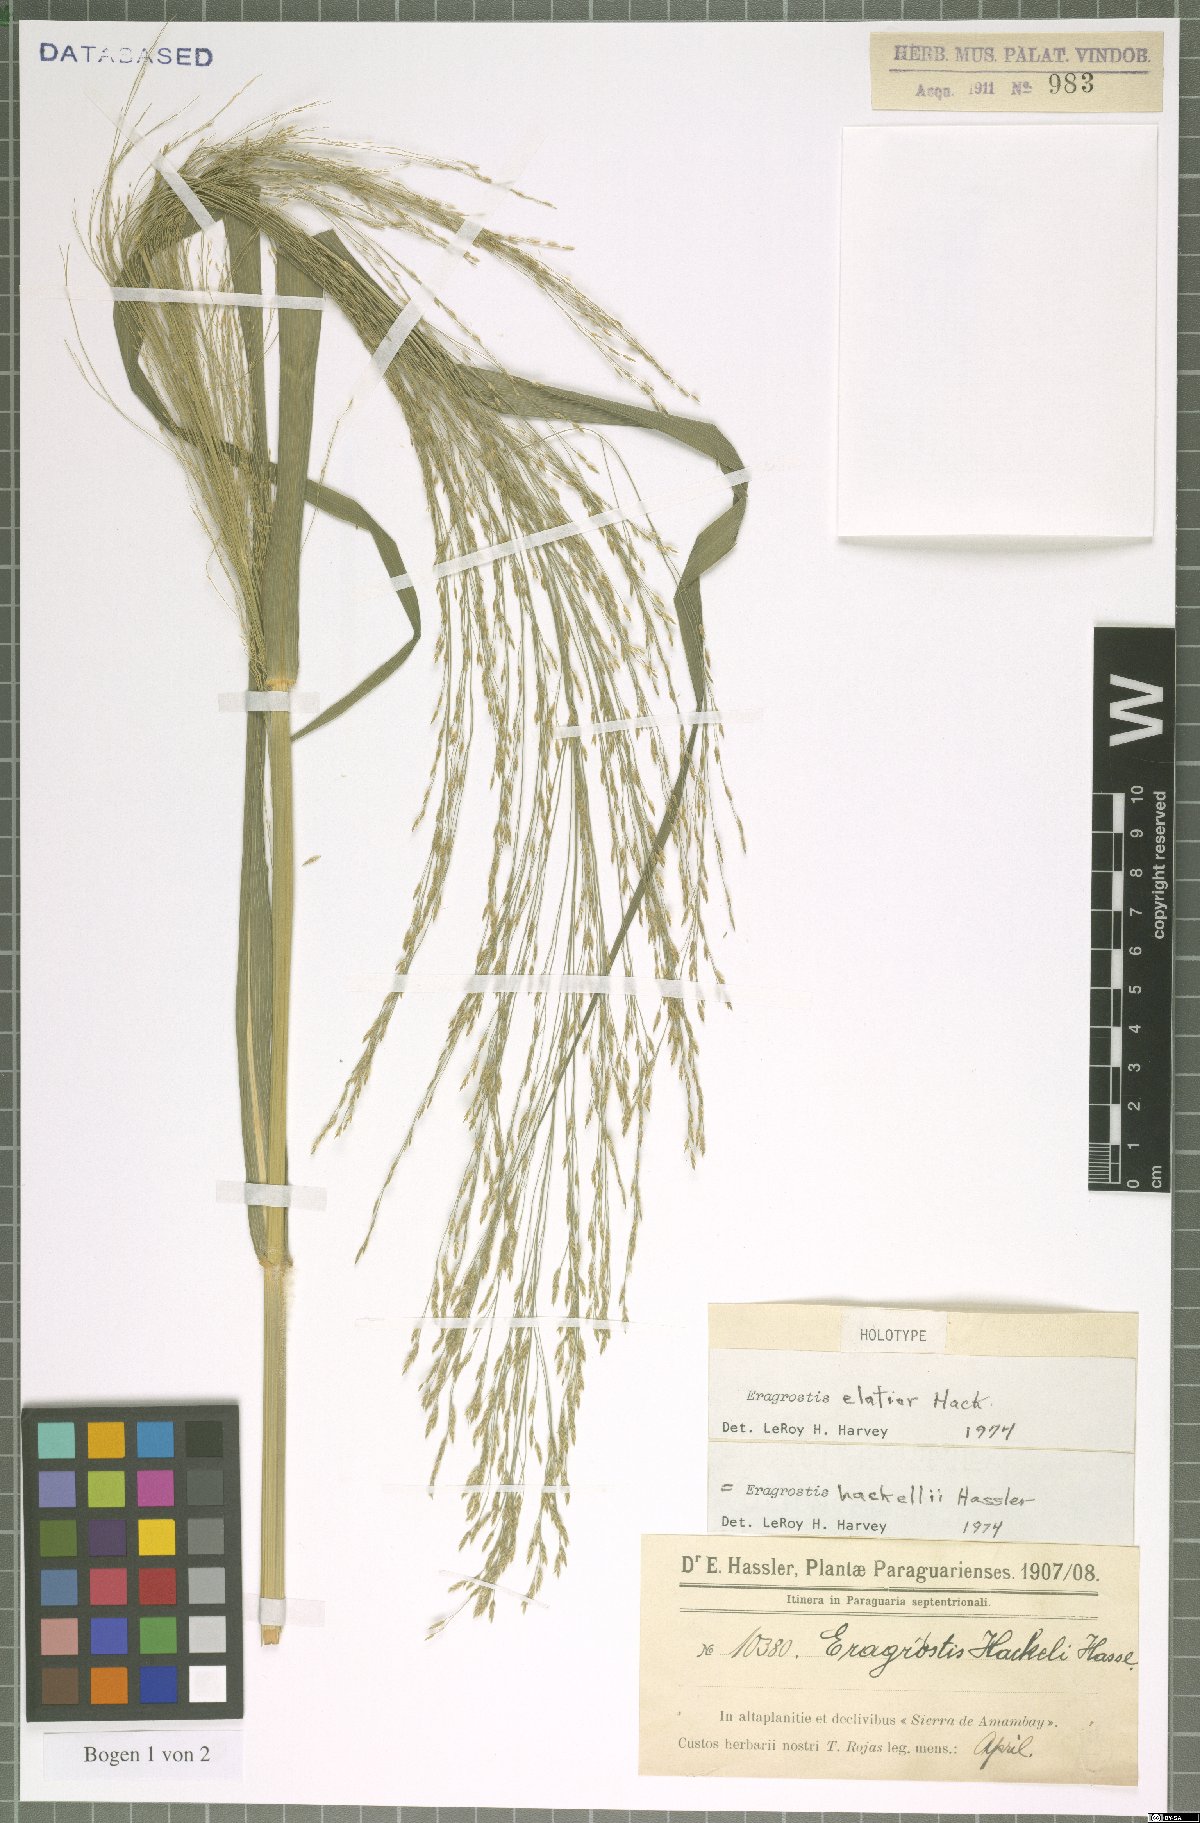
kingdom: Plantae
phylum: Tracheophyta
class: Liliopsida
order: Poales
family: Poaceae
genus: Eragrostis
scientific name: Eragrostis bahiensis
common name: Bahia lovegrass
